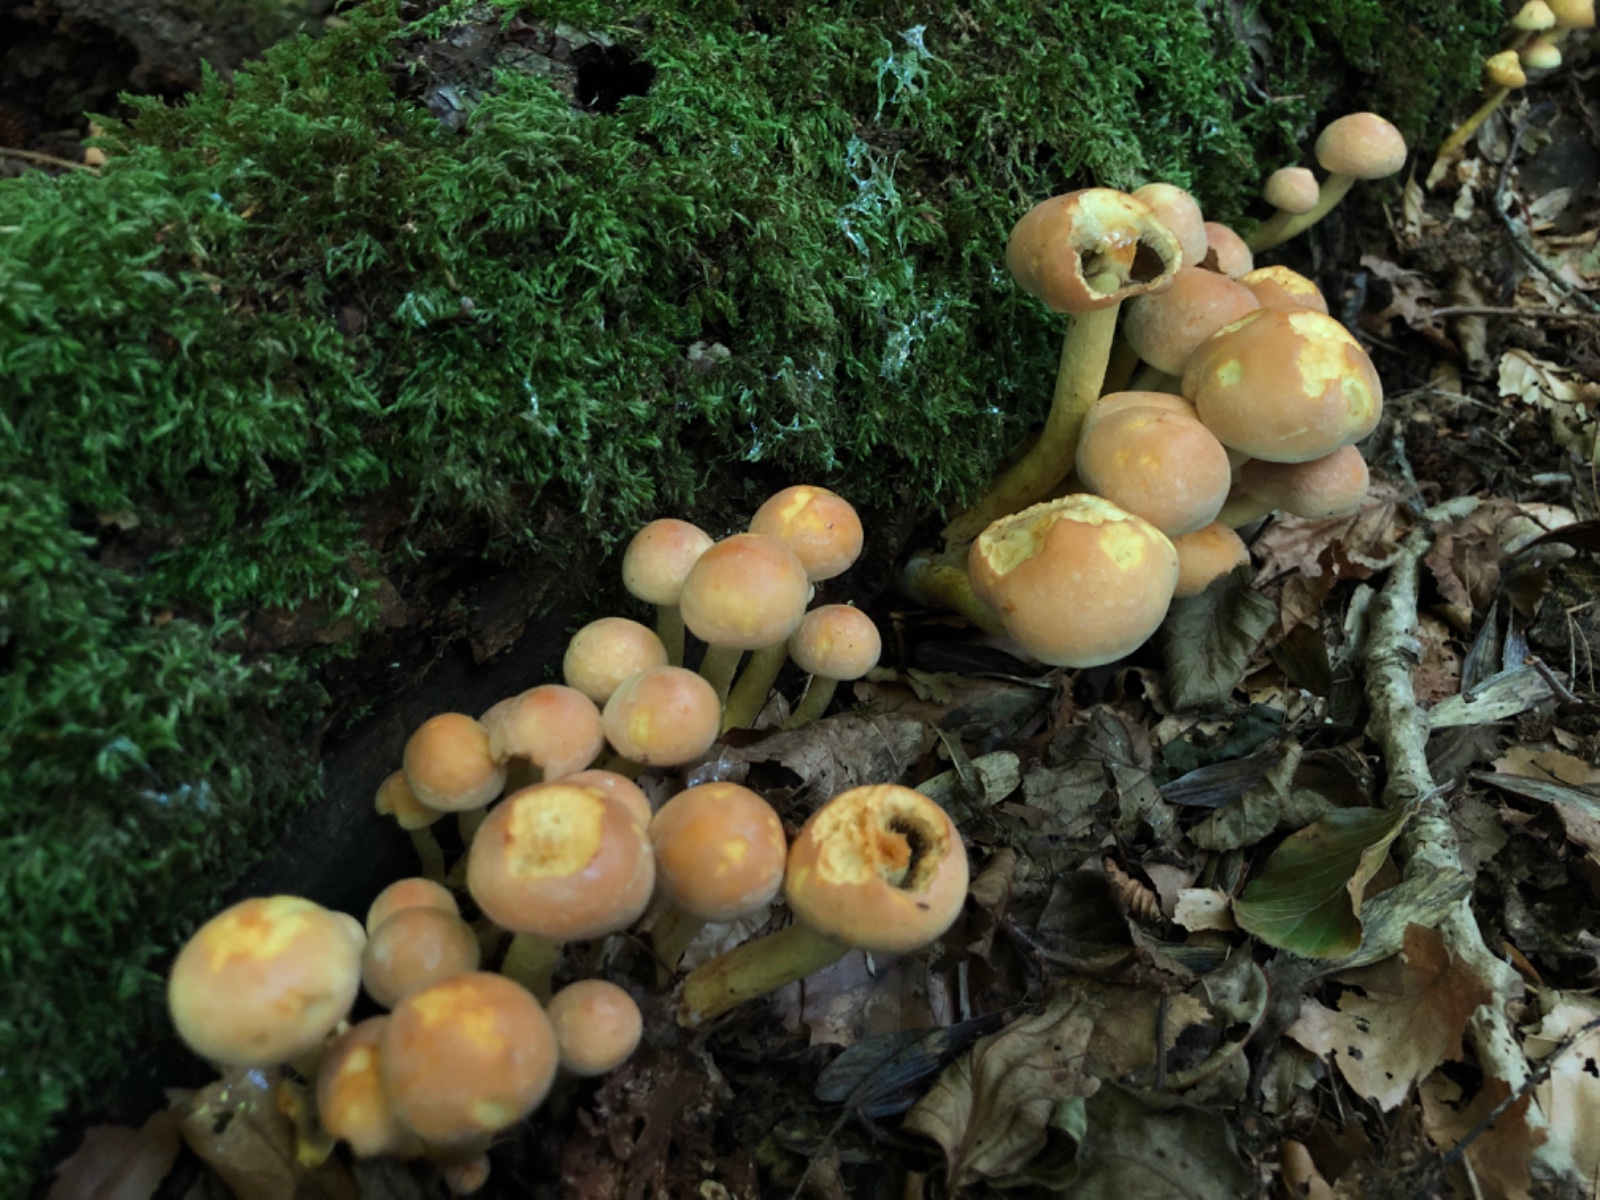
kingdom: Fungi
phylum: Basidiomycota
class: Agaricomycetes
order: Agaricales
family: Strophariaceae
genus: Hypholoma
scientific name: Hypholoma fasciculare
